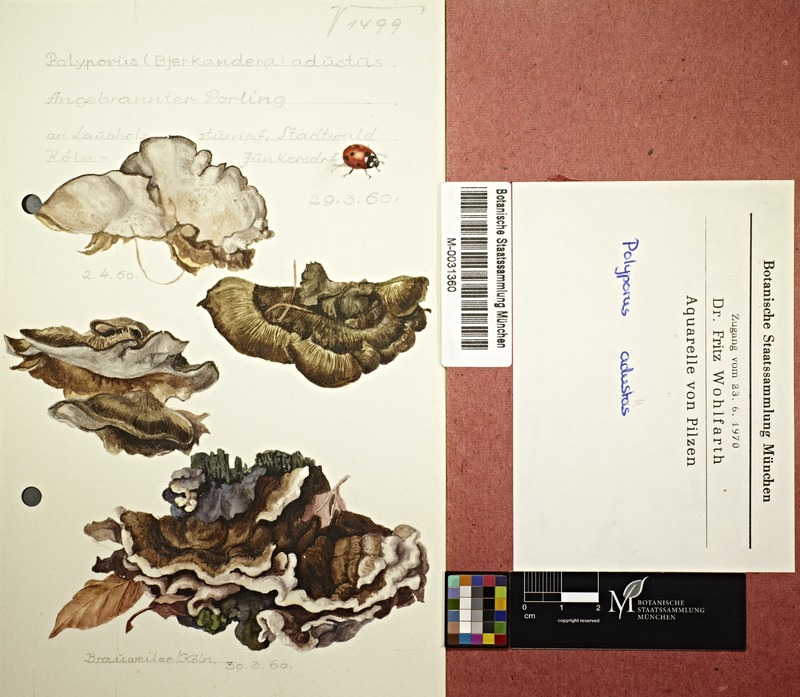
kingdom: Fungi
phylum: Basidiomycota
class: Agaricomycetes
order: Polyporales
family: Phanerochaetaceae
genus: Bjerkandera
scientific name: Bjerkandera adusta
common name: Smoky bracket
